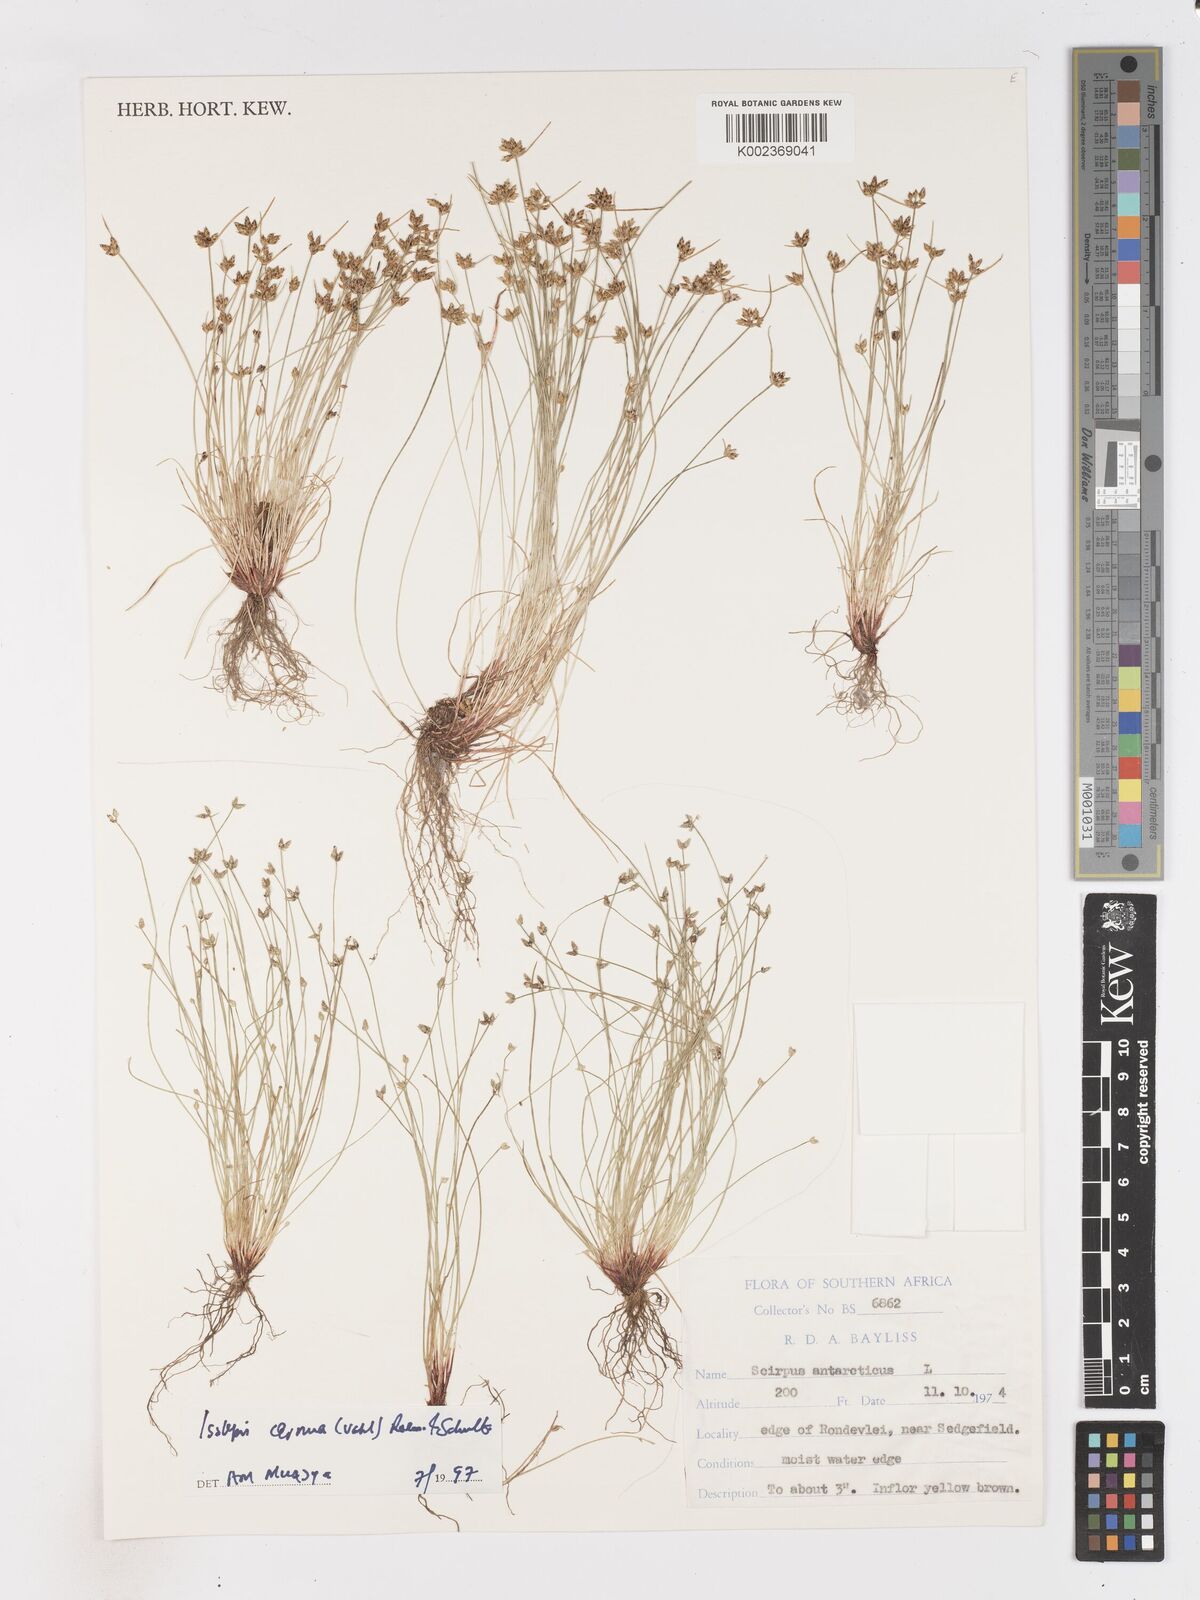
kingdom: Plantae
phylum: Tracheophyta
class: Liliopsida
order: Poales
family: Cyperaceae
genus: Isolepis
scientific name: Isolepis diabolica
